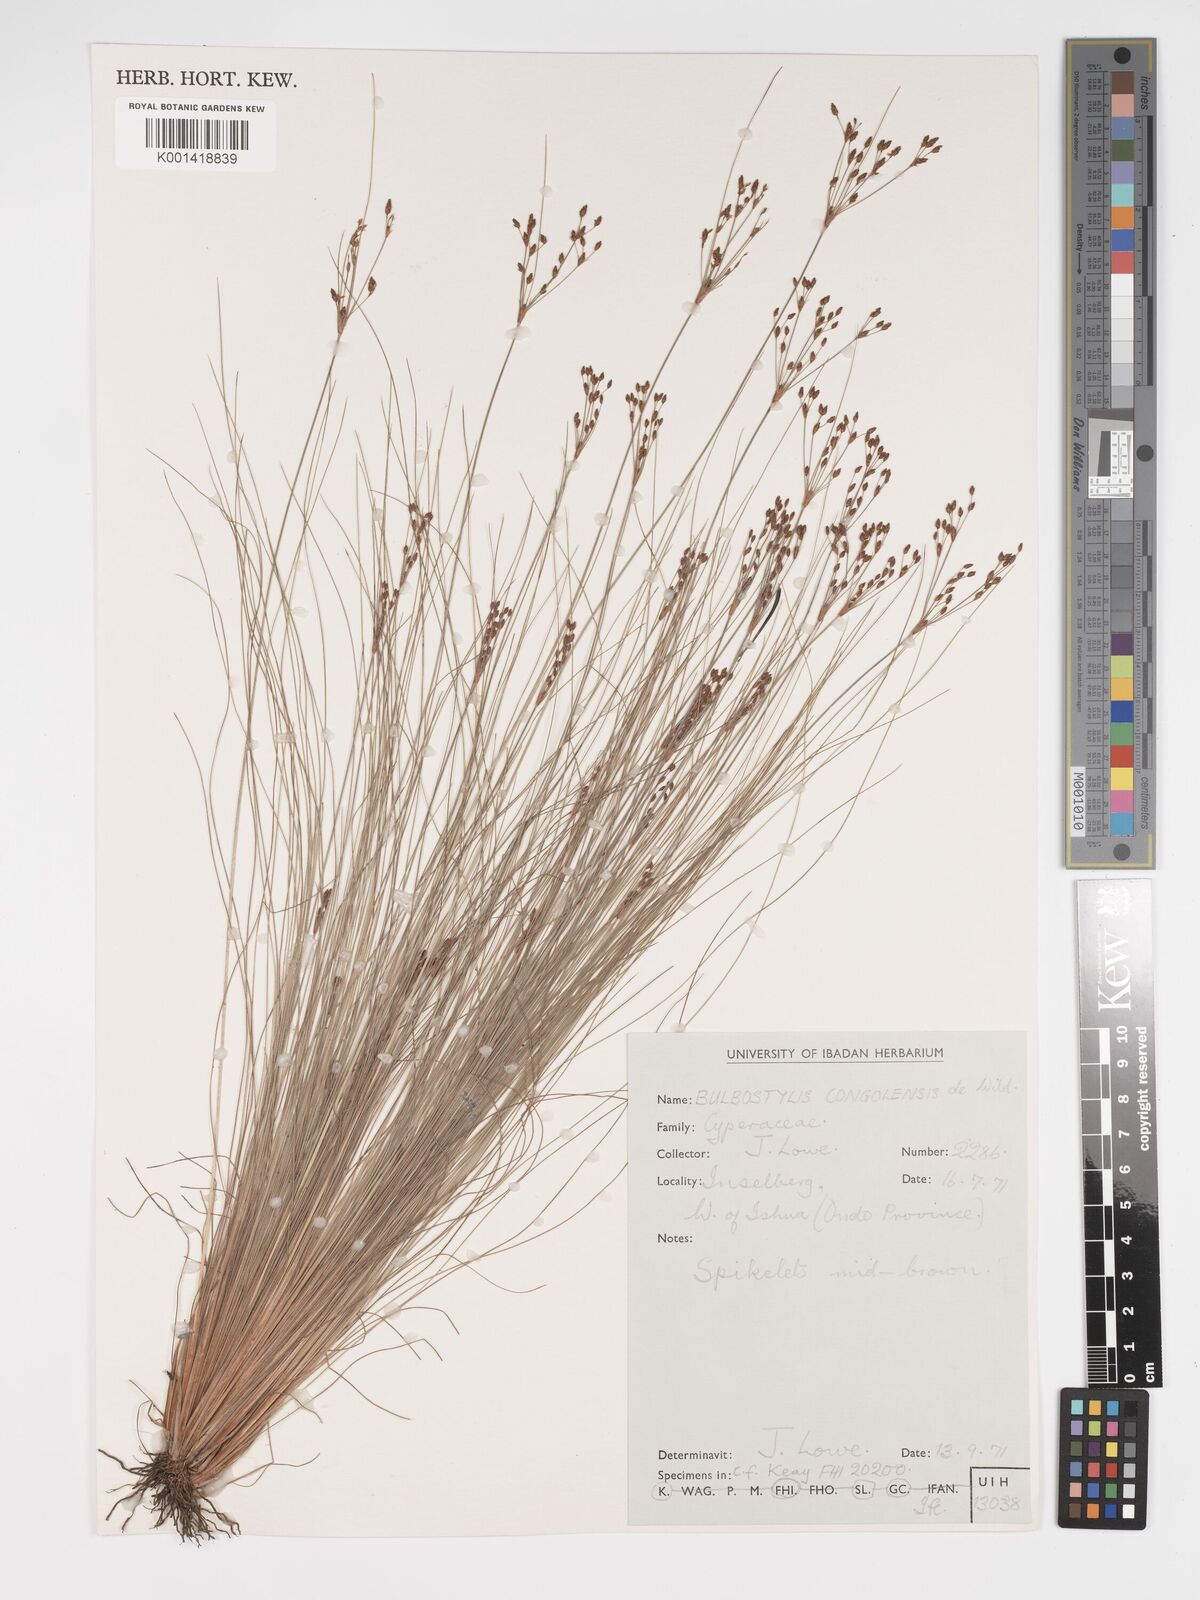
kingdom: Plantae
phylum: Tracheophyta
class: Liliopsida
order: Poales
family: Cyperaceae
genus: Bulbostylis
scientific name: Bulbostylis congolensis
